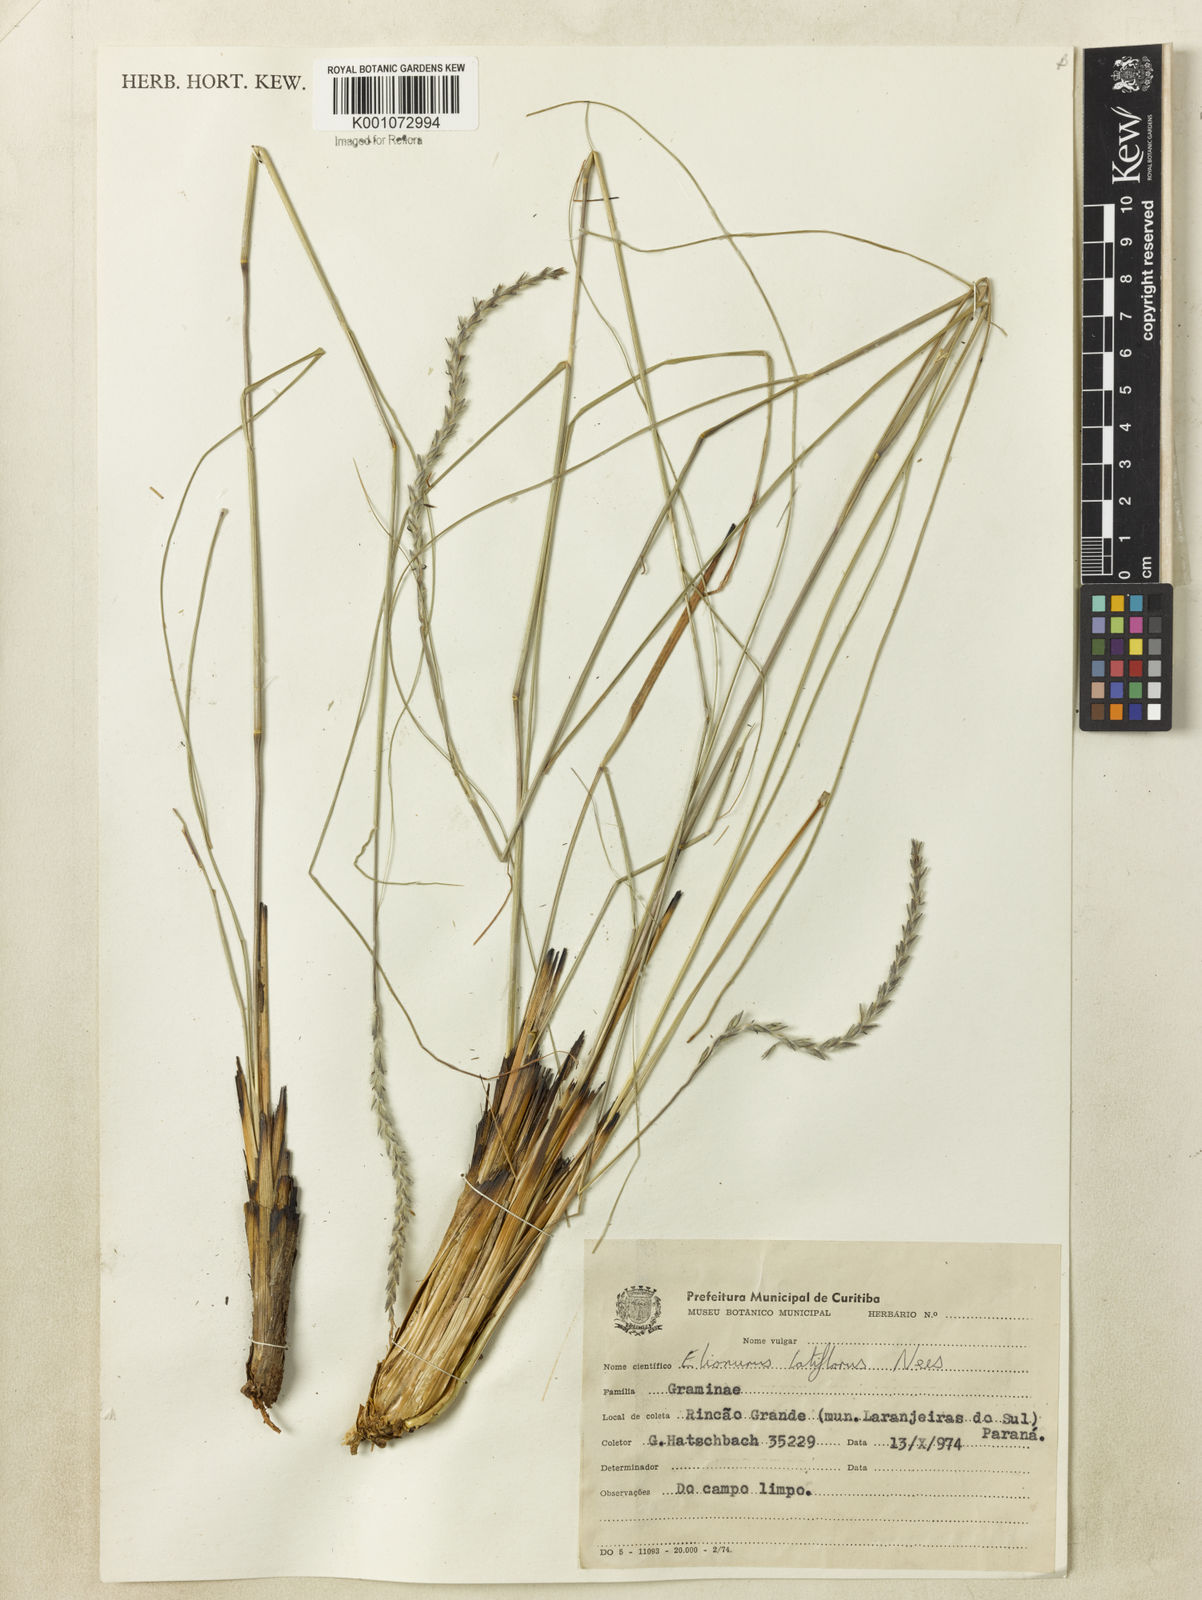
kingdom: Plantae
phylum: Tracheophyta
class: Liliopsida
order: Poales
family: Poaceae
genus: Elionurus
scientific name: Elionurus muticus
